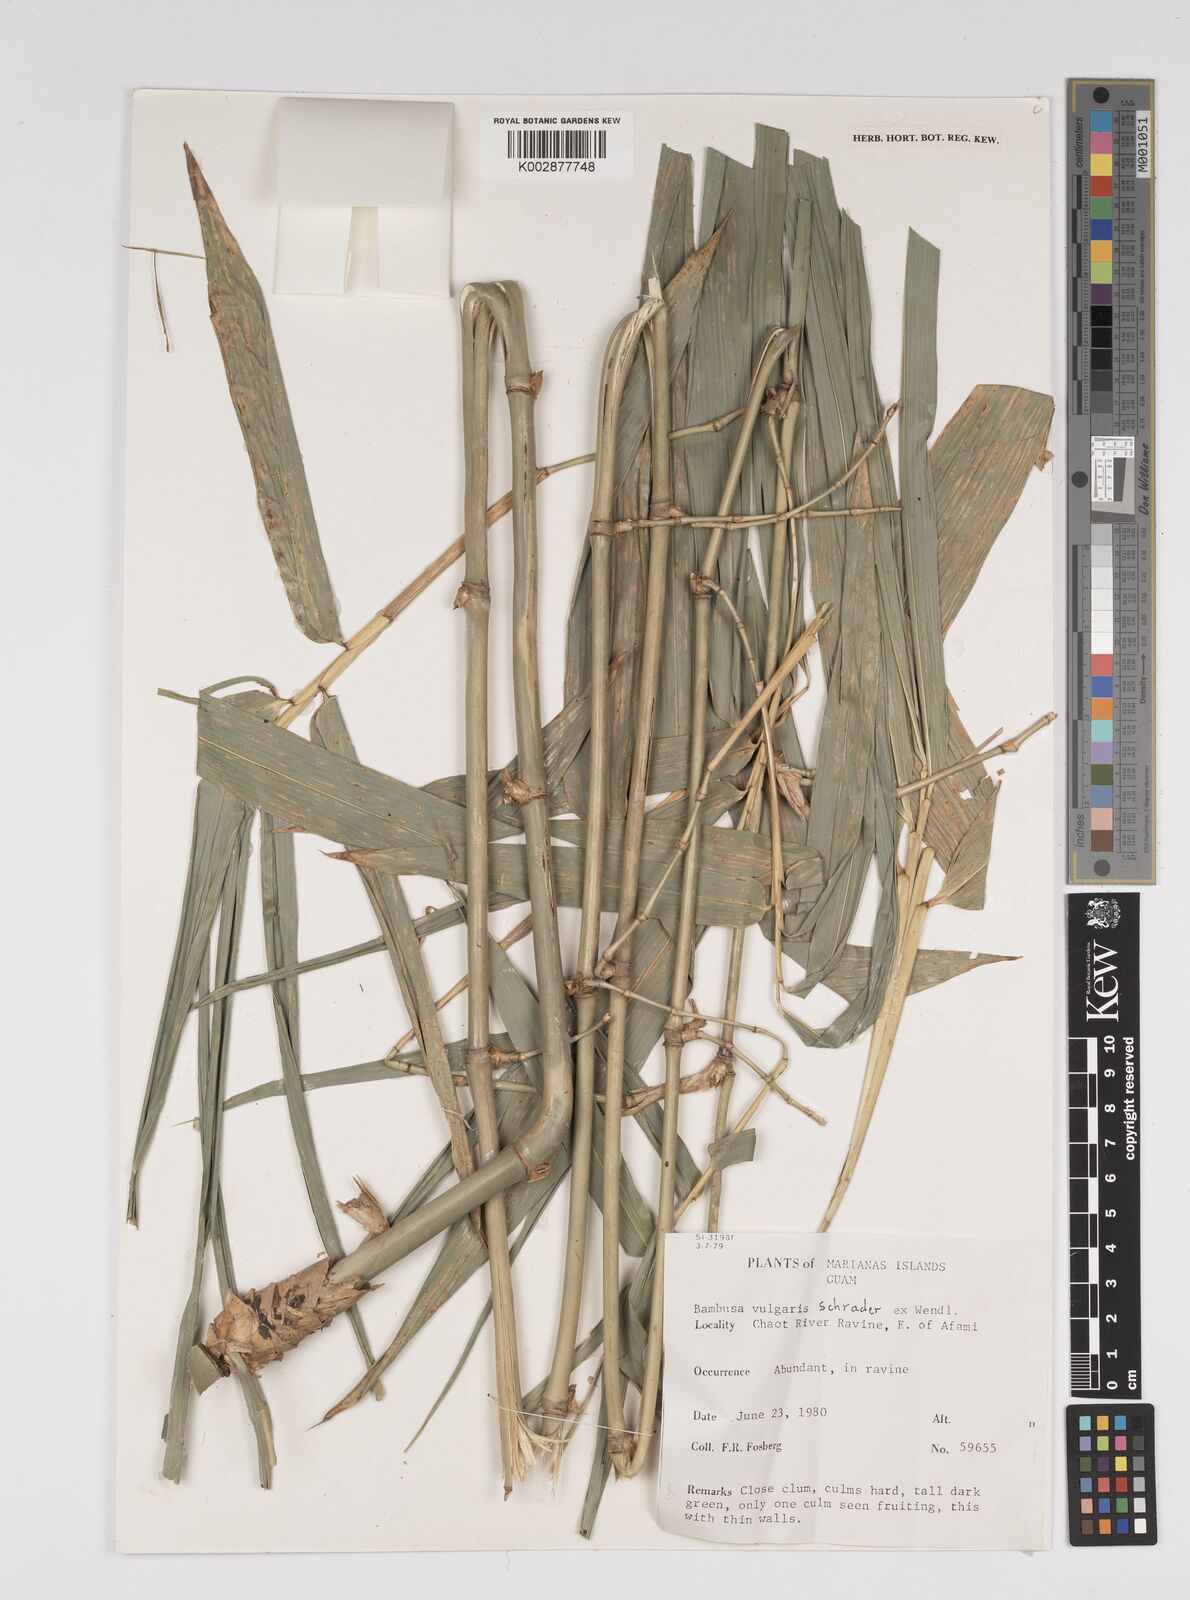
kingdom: Plantae
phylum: Tracheophyta
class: Liliopsida
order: Poales
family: Poaceae
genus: Bambusa
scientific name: Bambusa vulgaris
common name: Common bamboo
